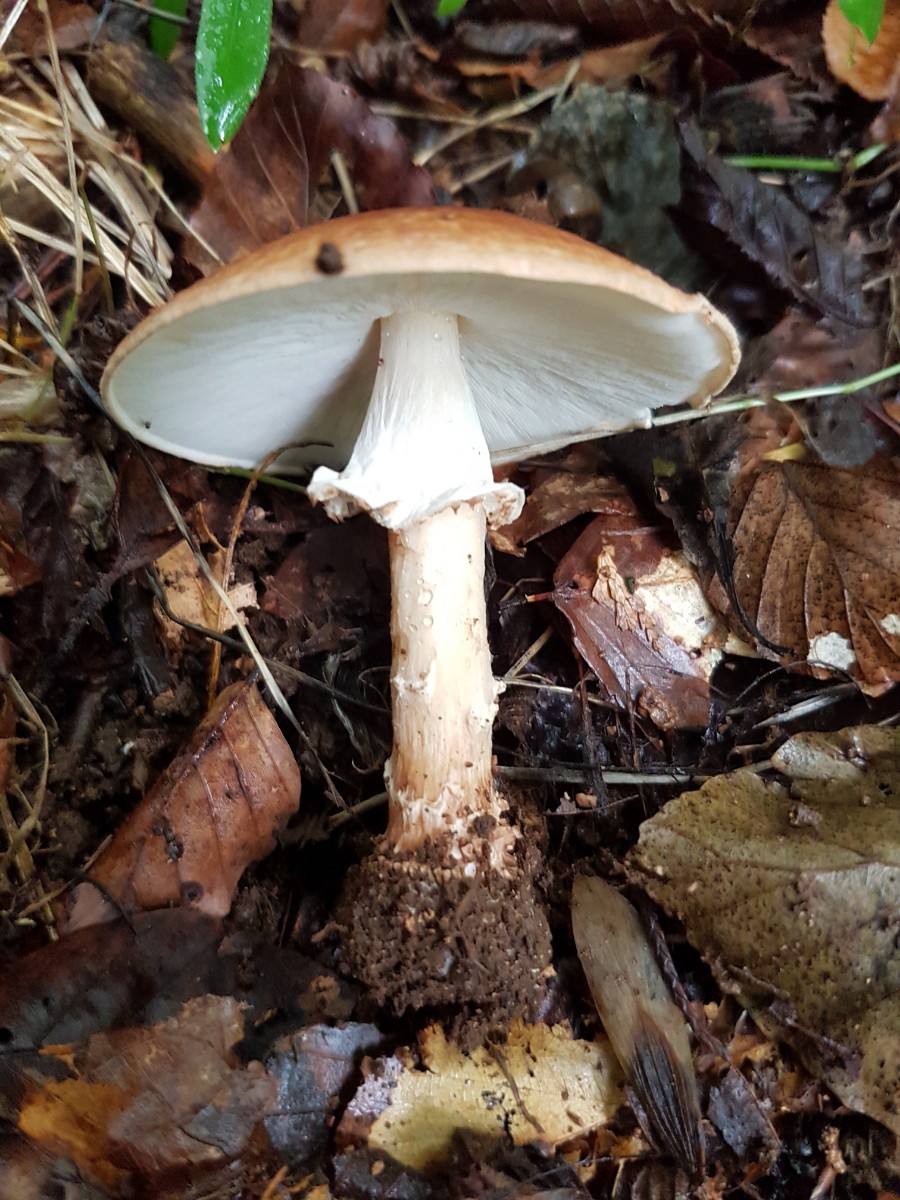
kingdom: Fungi
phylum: Basidiomycota
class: Agaricomycetes
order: Agaricales
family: Agaricaceae
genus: Echinoderma
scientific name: Echinoderma asperum
